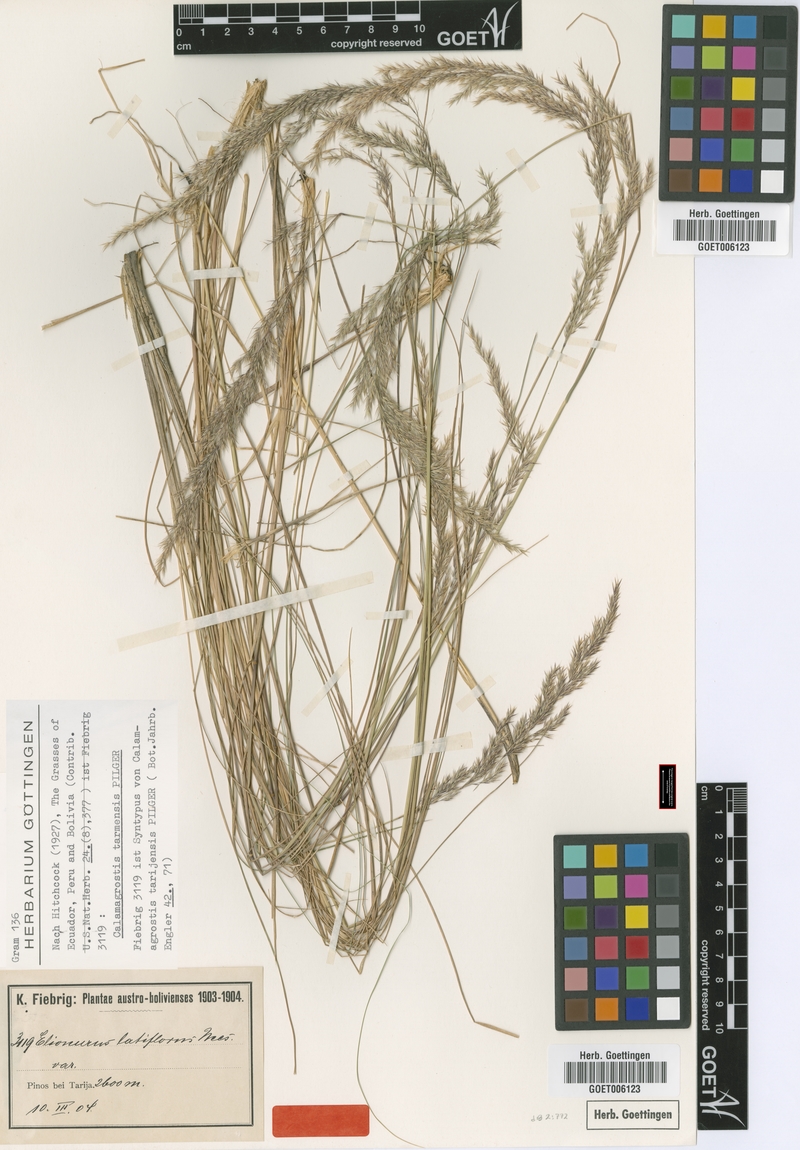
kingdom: Plantae
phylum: Tracheophyta
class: Liliopsida
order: Poales
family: Poaceae
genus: Cinnagrostis
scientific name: Cinnagrostis tarmensis
